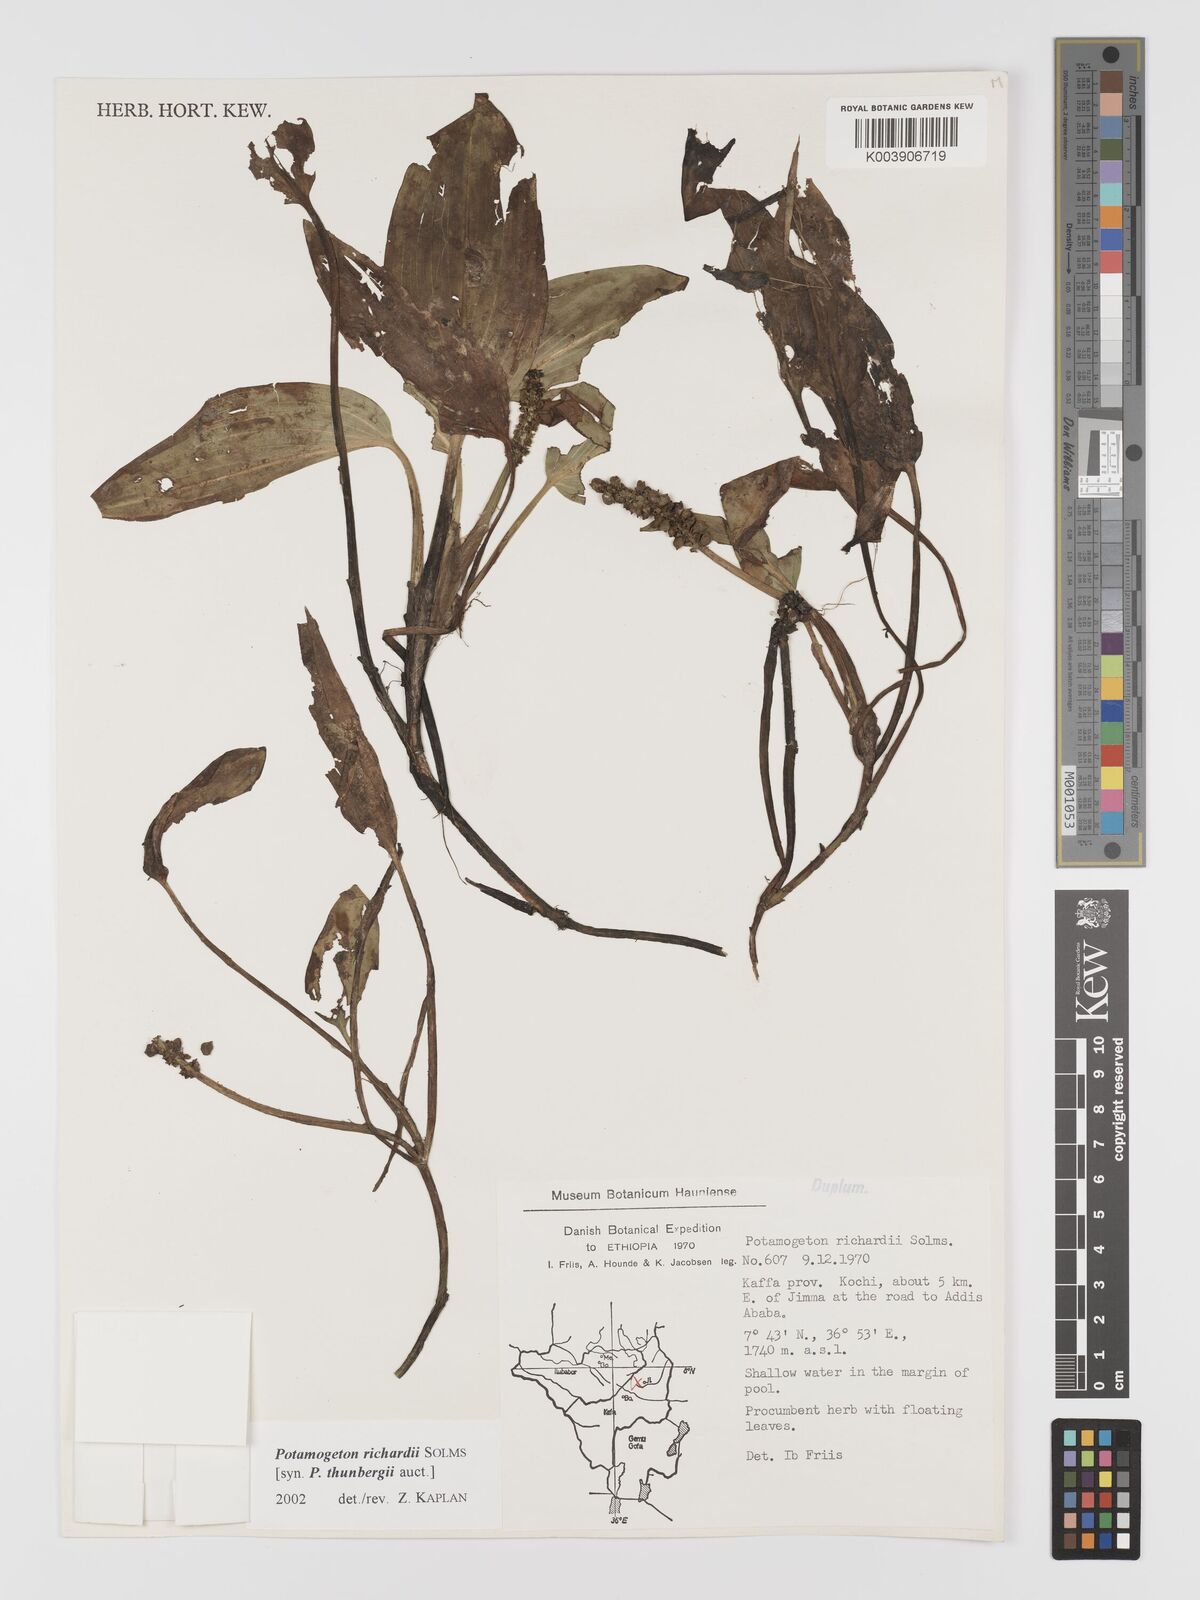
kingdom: Plantae
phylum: Tracheophyta
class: Liliopsida
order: Alismatales
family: Potamogetonaceae
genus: Potamogeton
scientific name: Potamogeton nodosus
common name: Loddon pondweed
